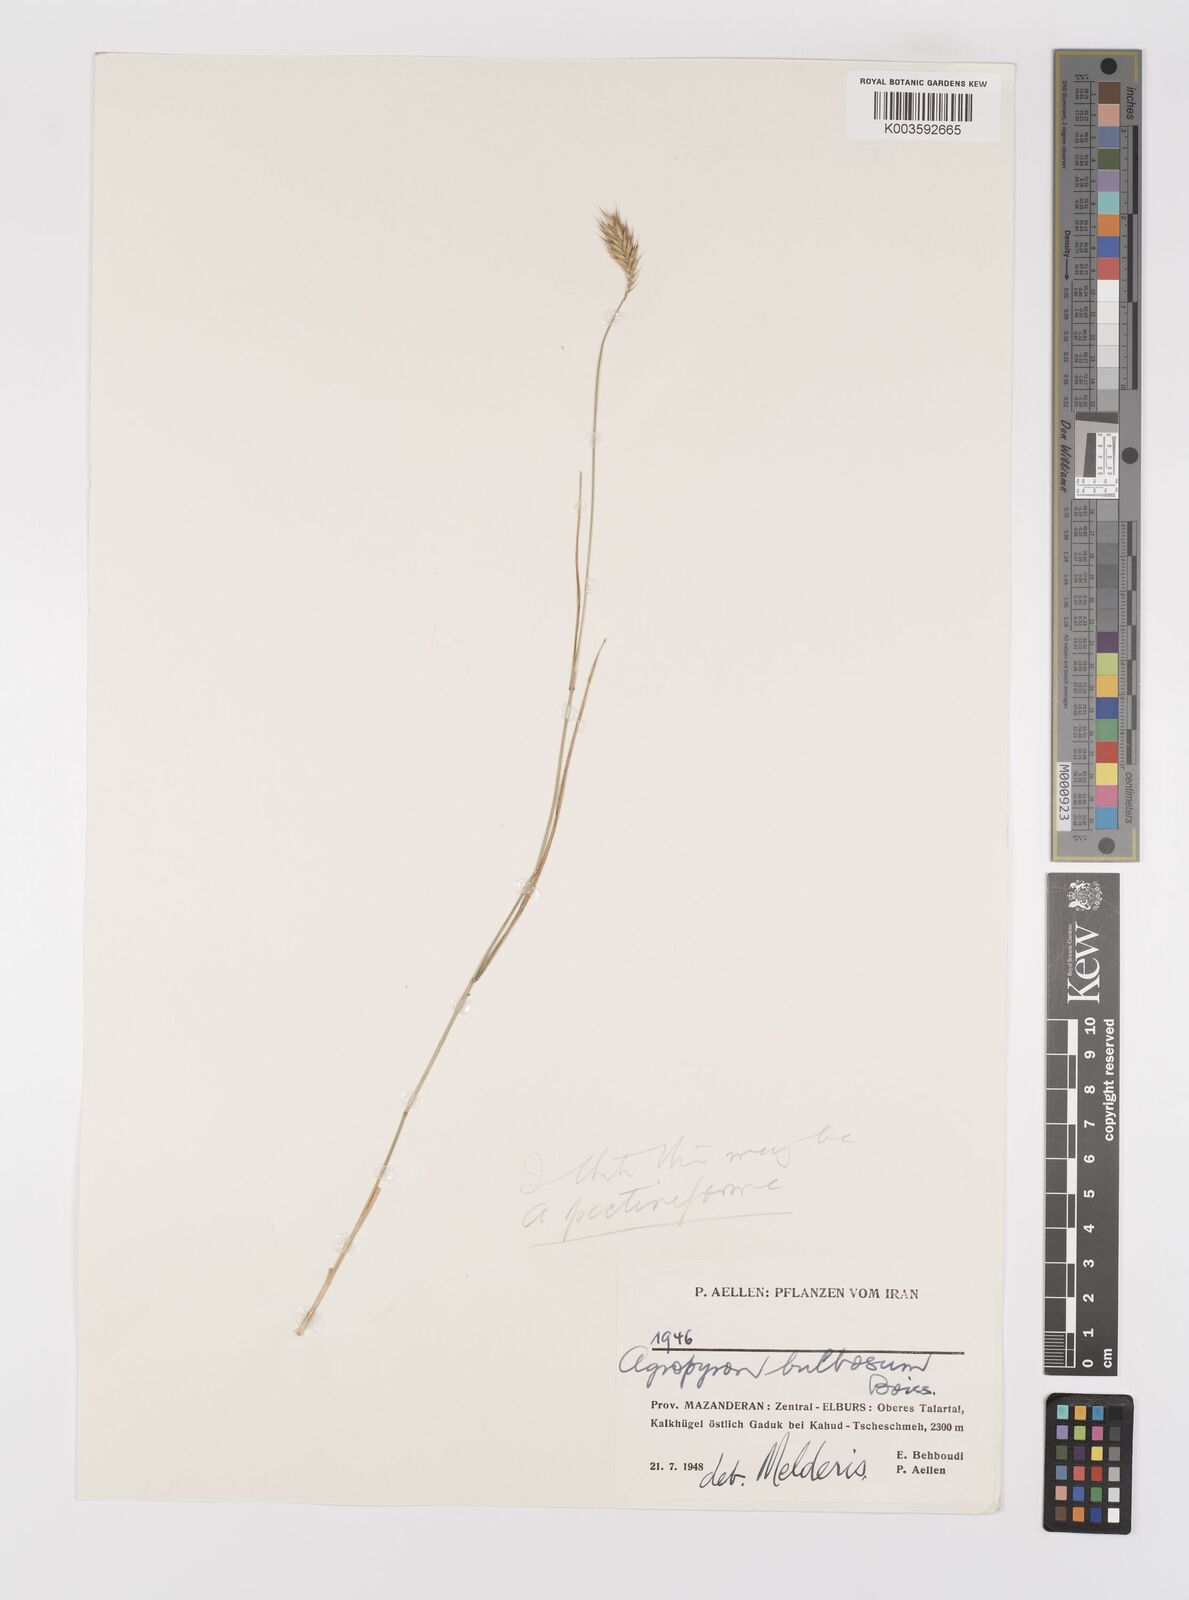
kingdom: Plantae
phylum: Tracheophyta
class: Liliopsida
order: Poales
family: Poaceae
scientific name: Poaceae
